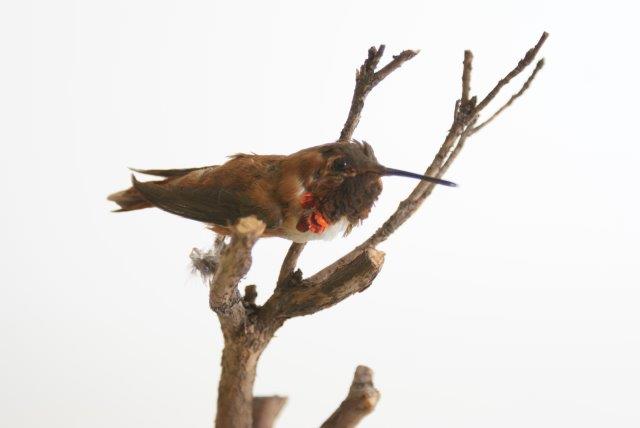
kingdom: Animalia
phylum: Chordata
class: Aves
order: Apodiformes
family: Trochilidae
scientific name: Trochilidae
